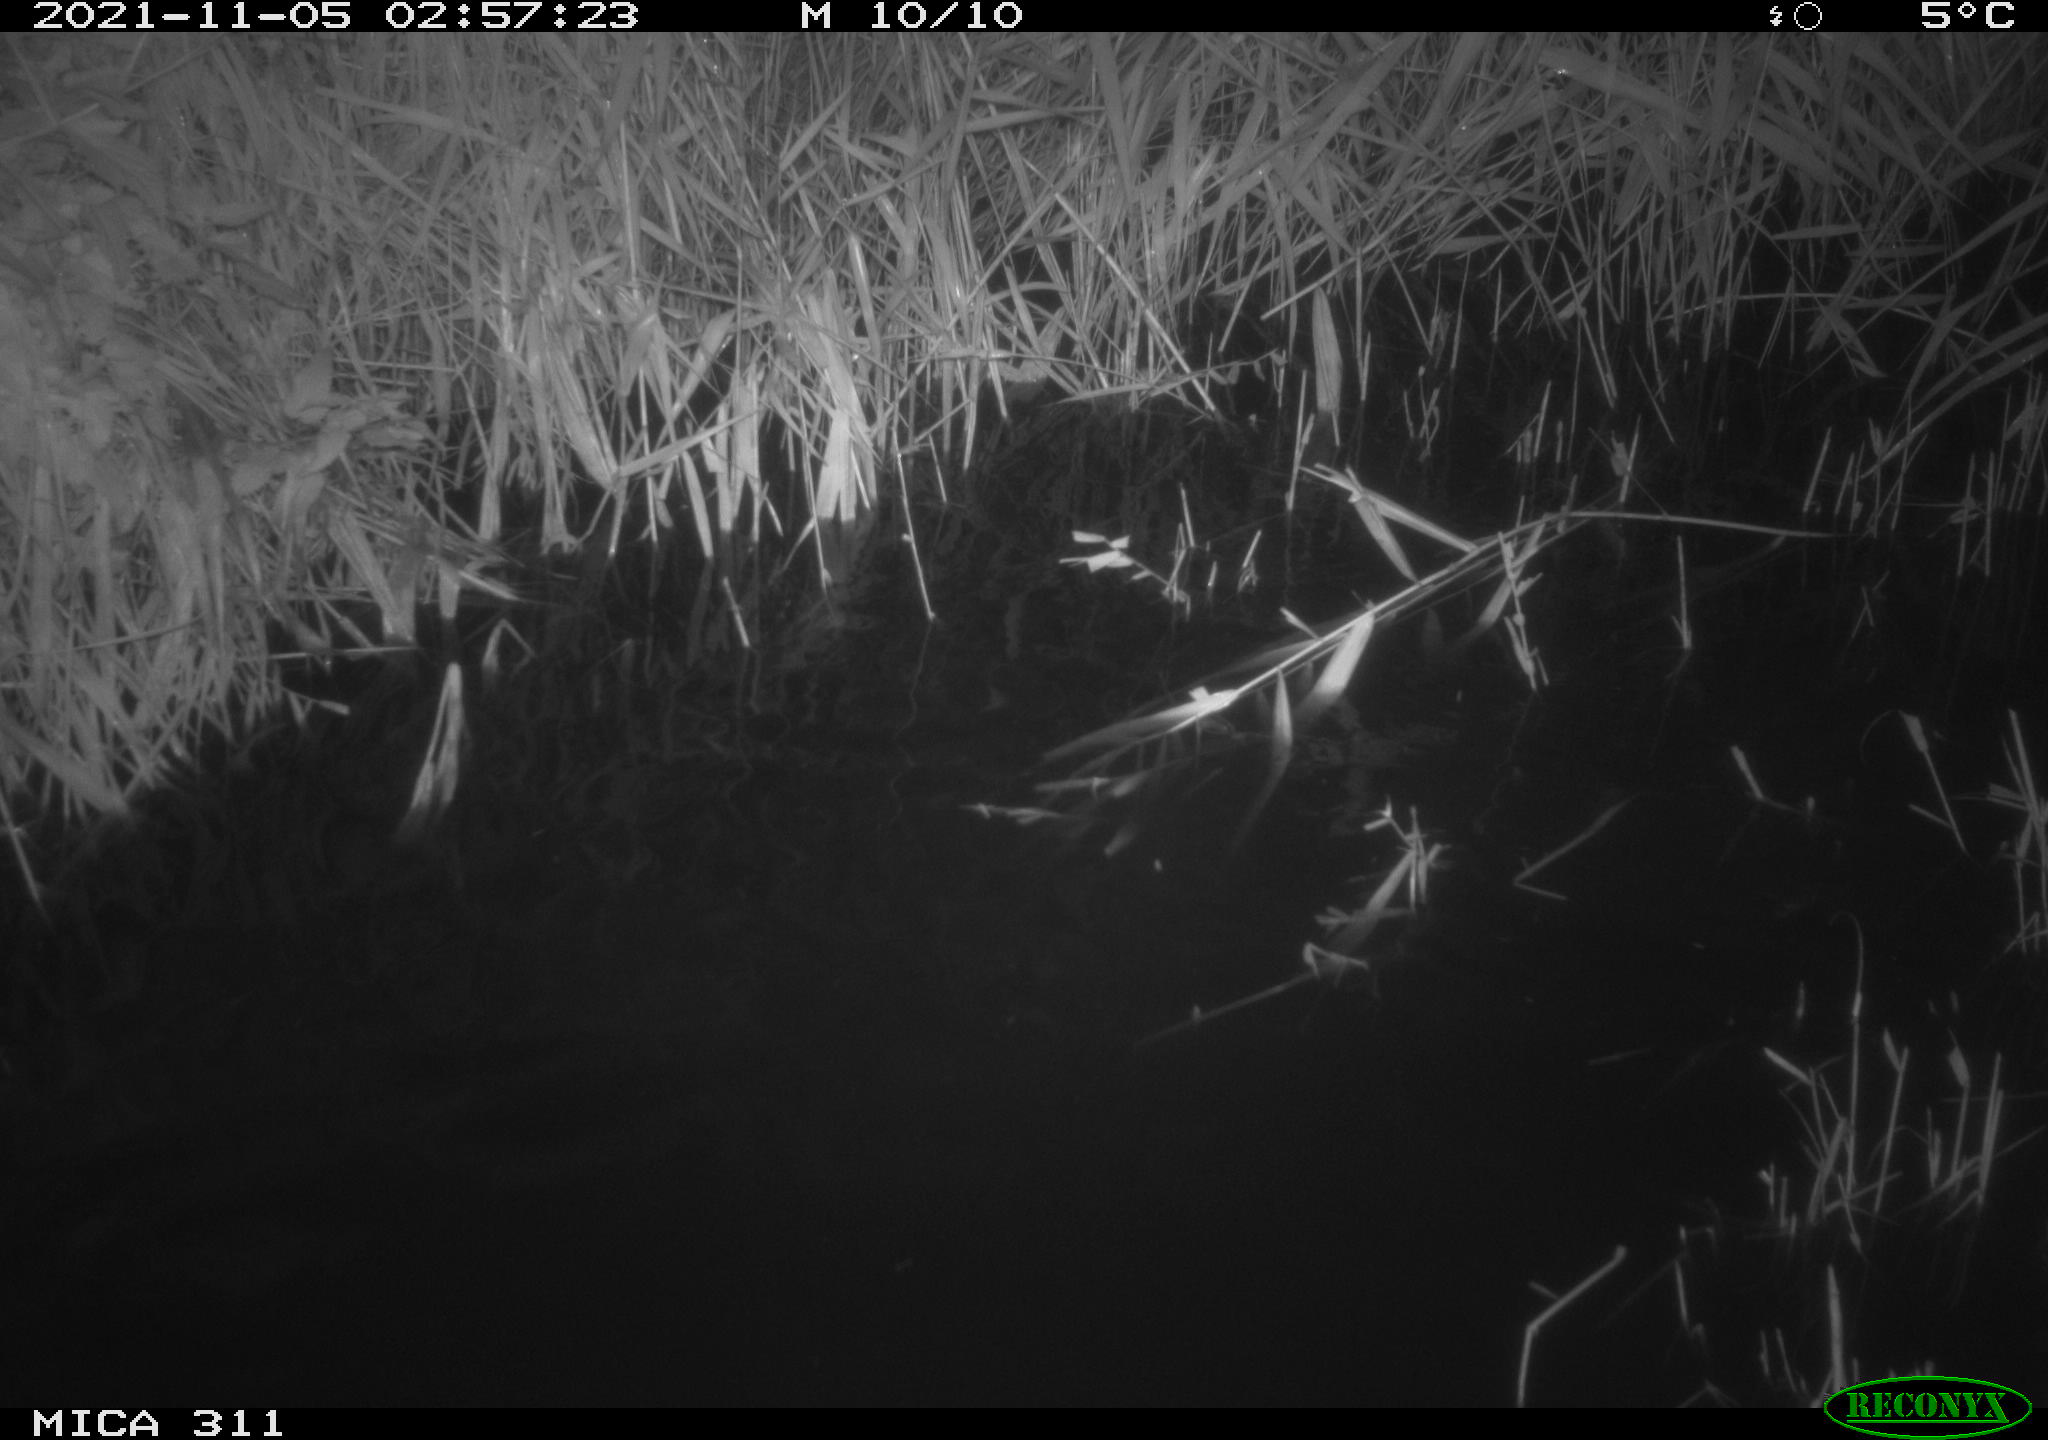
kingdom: Animalia
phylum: Chordata
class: Mammalia
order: Rodentia
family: Muridae
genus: Rattus
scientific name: Rattus norvegicus
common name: Brown rat
